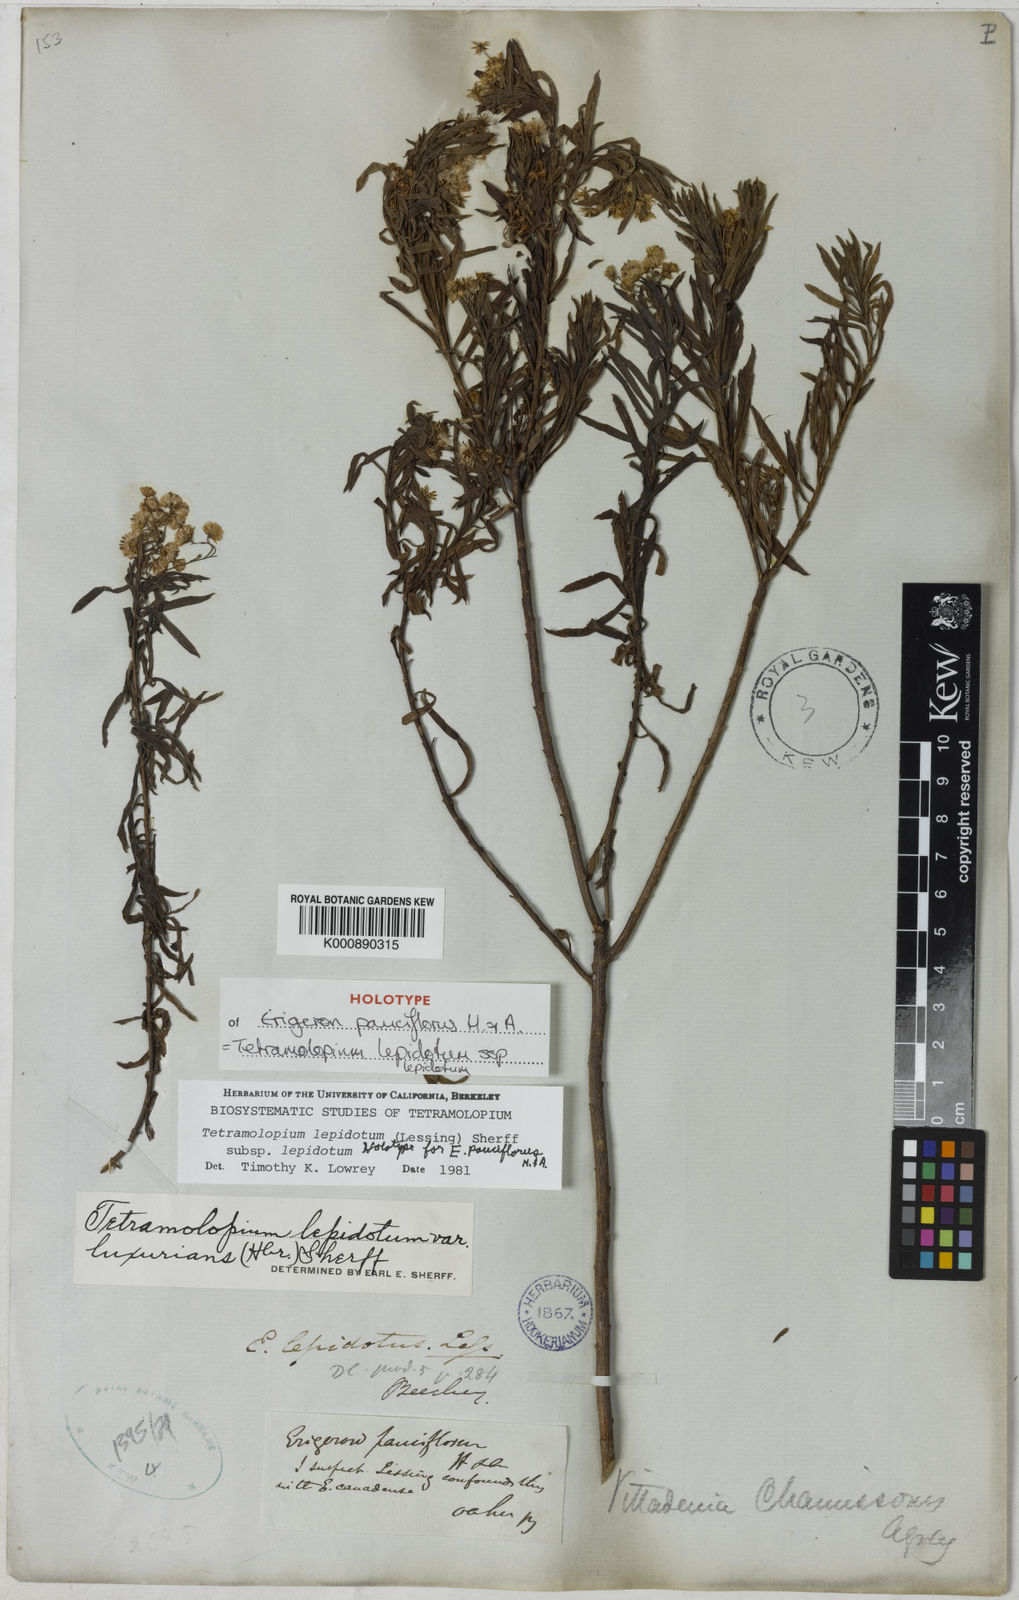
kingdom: Plantae
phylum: Tracheophyta
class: Magnoliopsida
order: Asterales
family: Asteraceae
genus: Iotasperma
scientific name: Iotasperma australiensis
